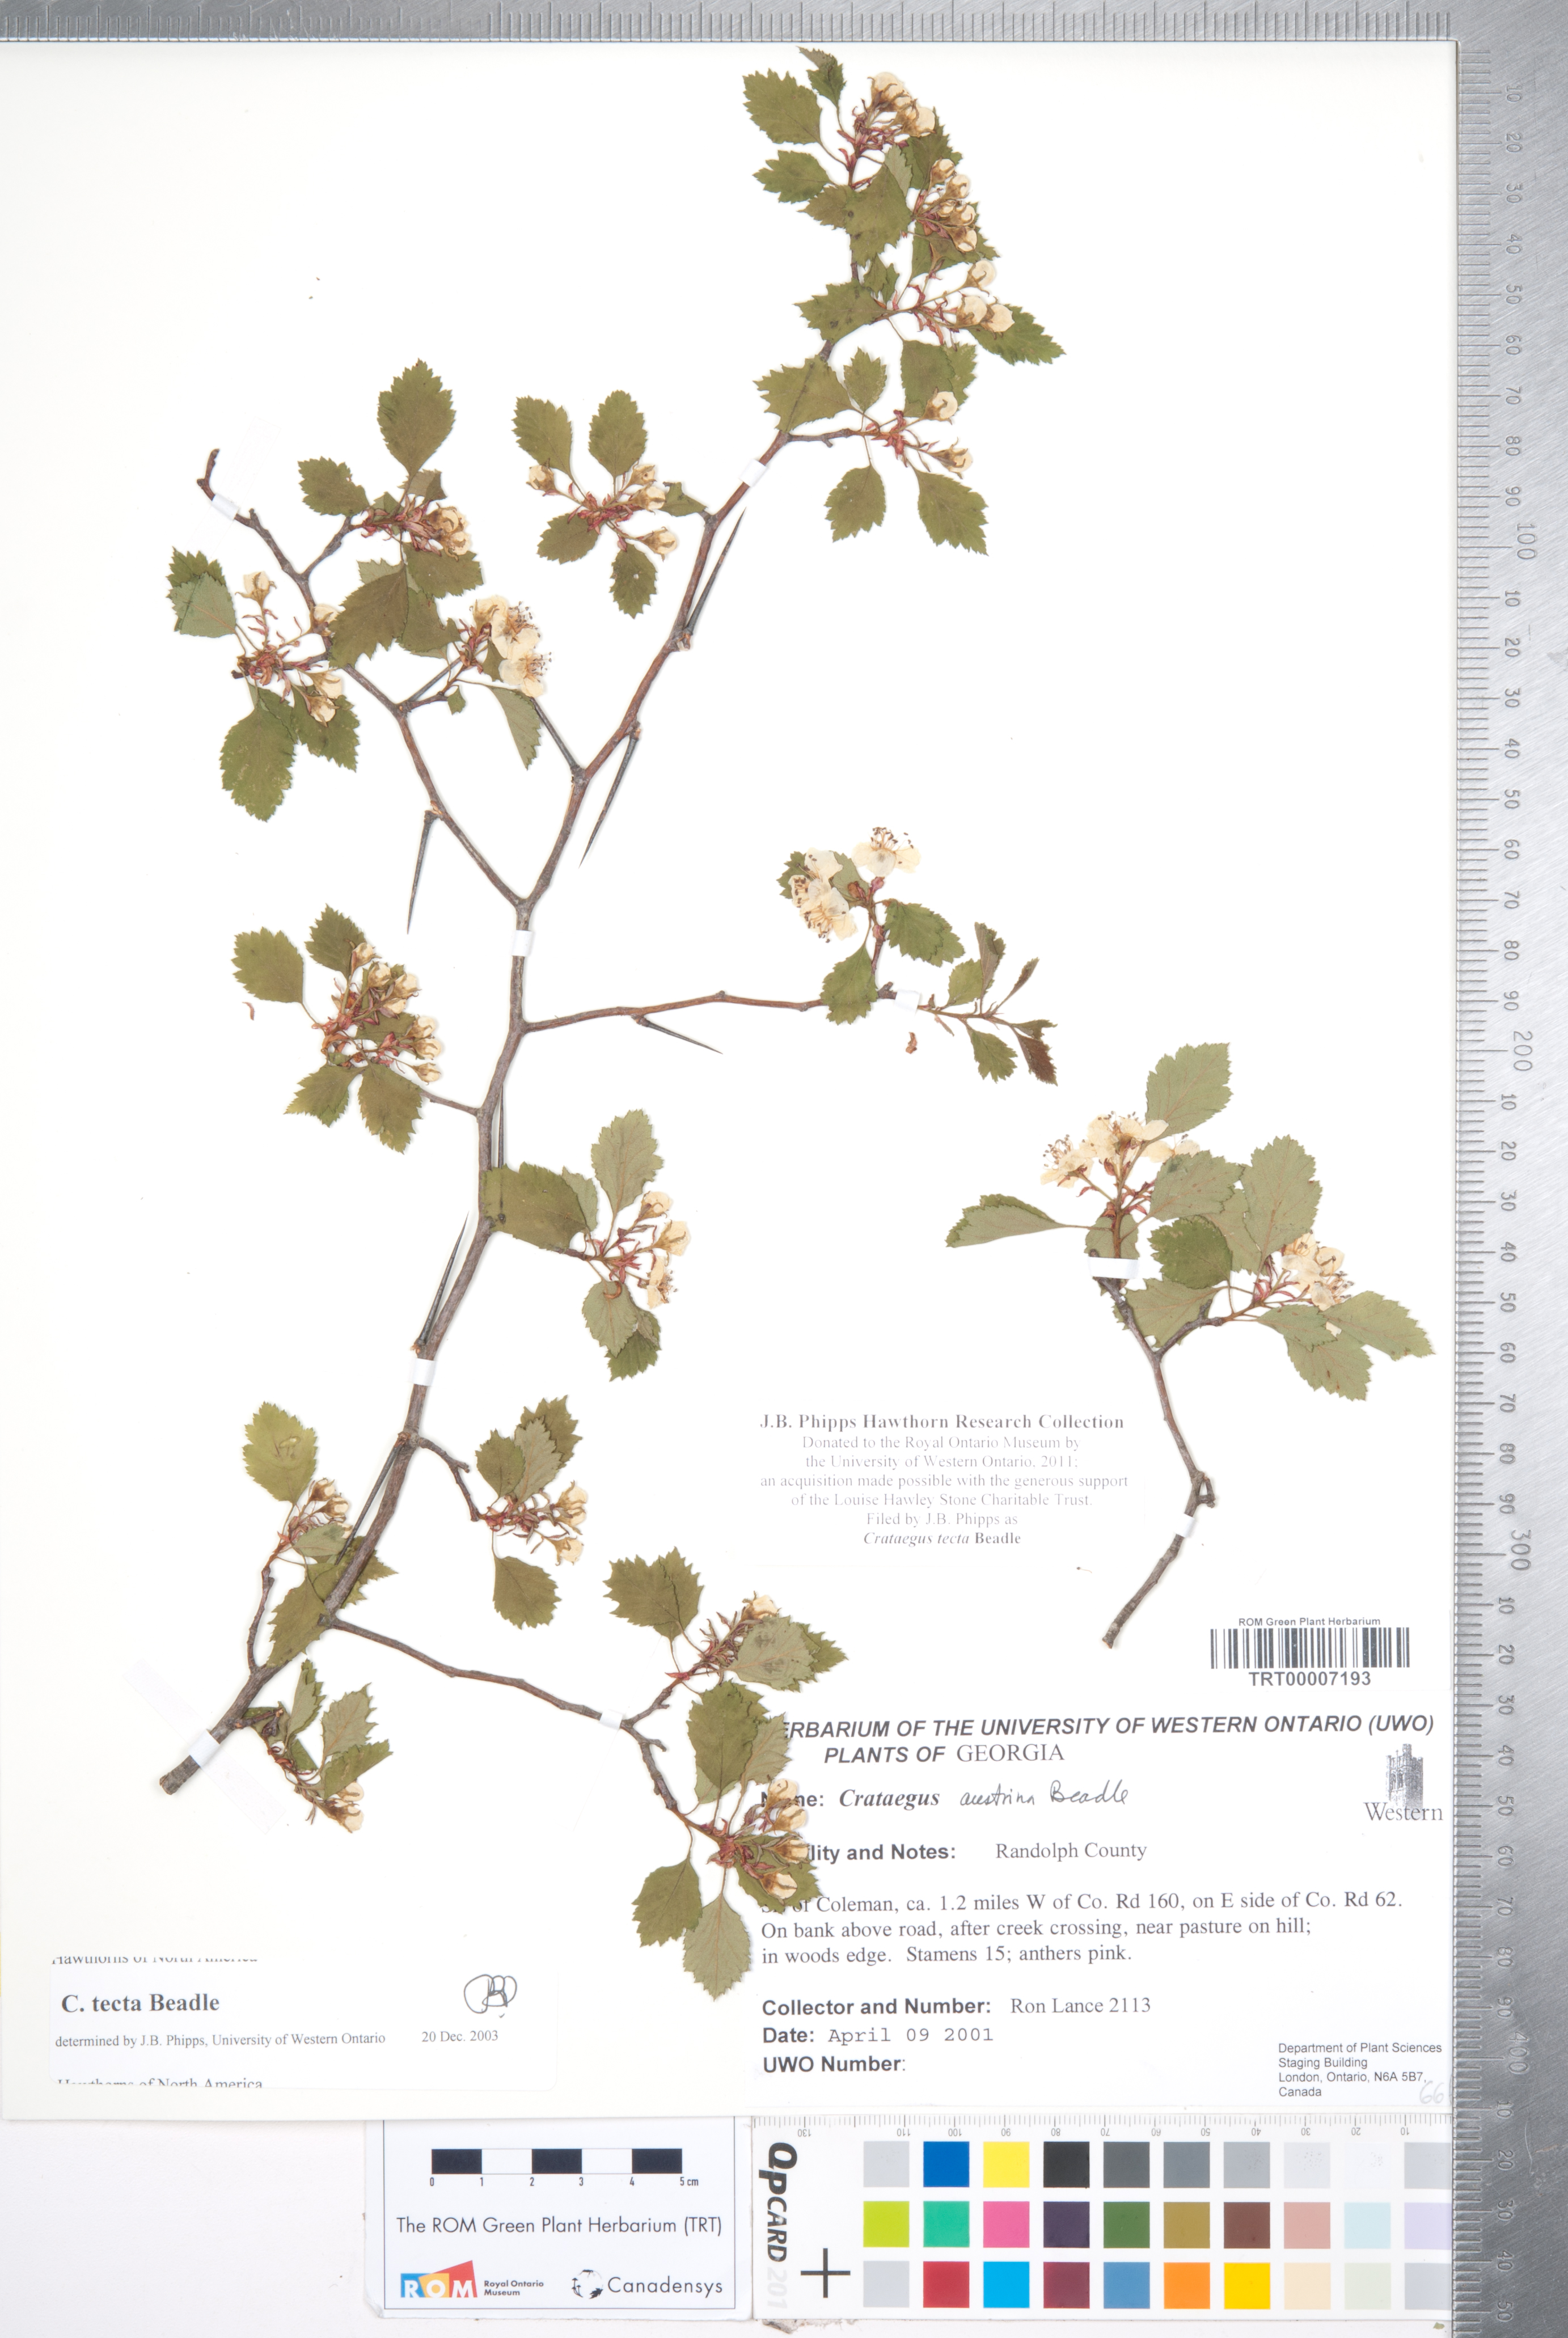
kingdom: Plantae
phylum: Tracheophyta
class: Magnoliopsida
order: Rosales
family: Rosaceae
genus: Crataegus
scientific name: Crataegus pulcherrima
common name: Beautiful hawthorn
